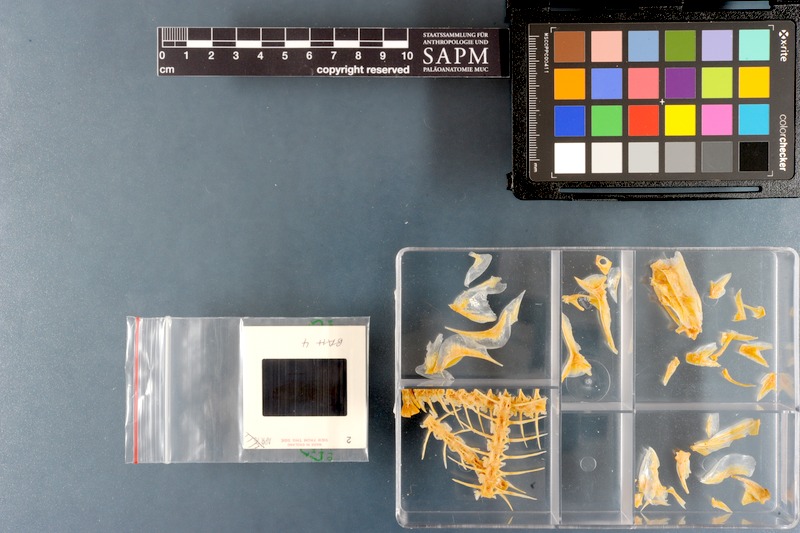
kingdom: Animalia
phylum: Chordata
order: Perciformes
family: Carangidae
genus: Alepes
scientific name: Alepes melanoptera
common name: Blackfin scad
